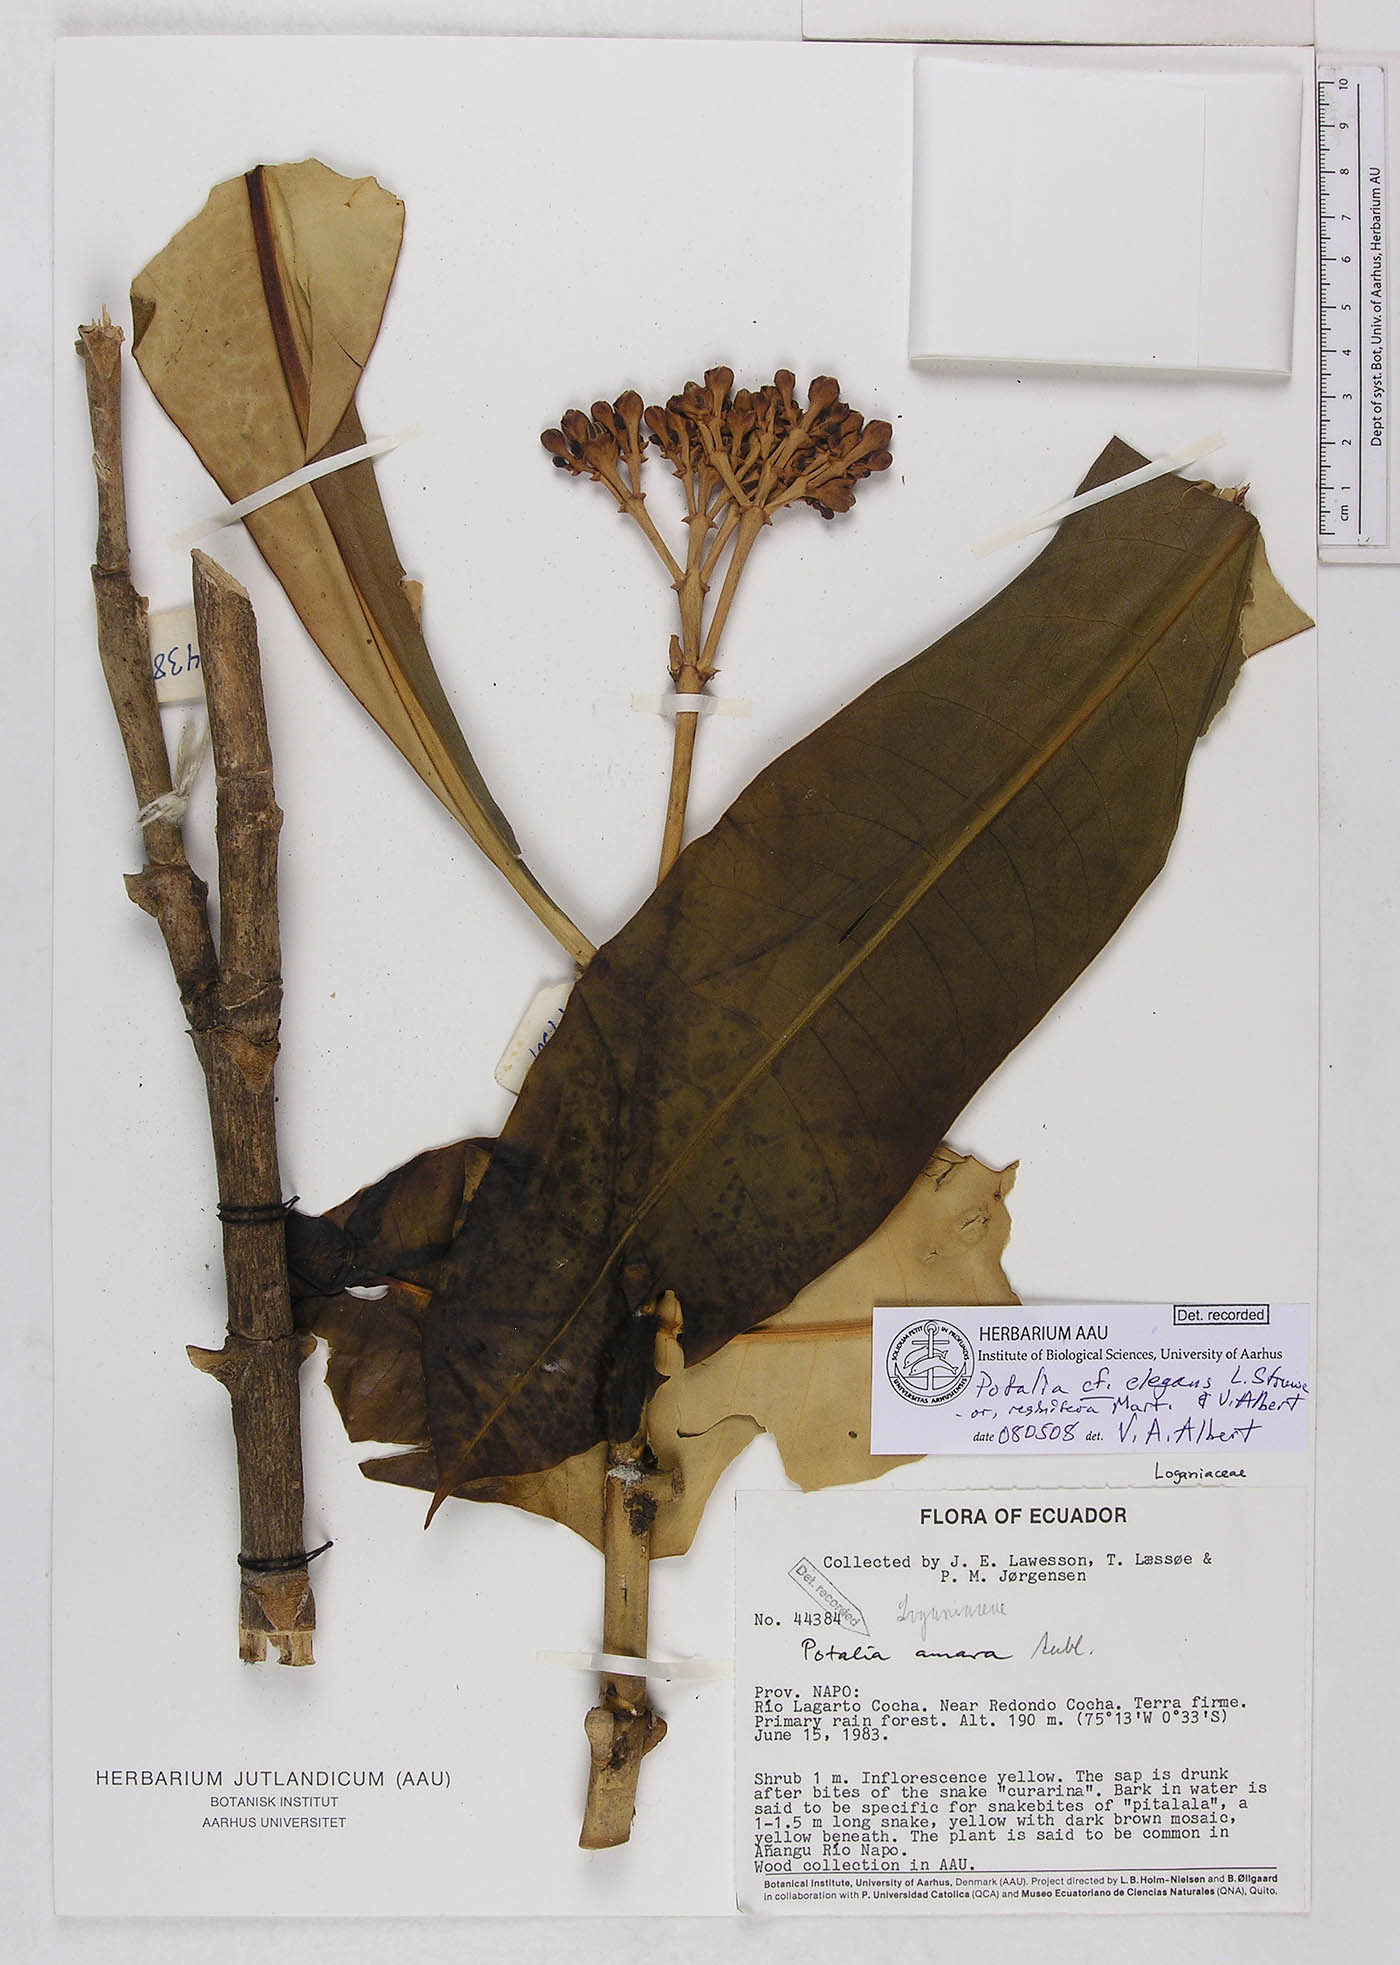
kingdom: Plantae
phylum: Tracheophyta
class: Magnoliopsida
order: Gentianales
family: Gentianaceae
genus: Potalia
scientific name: Potalia elegans
